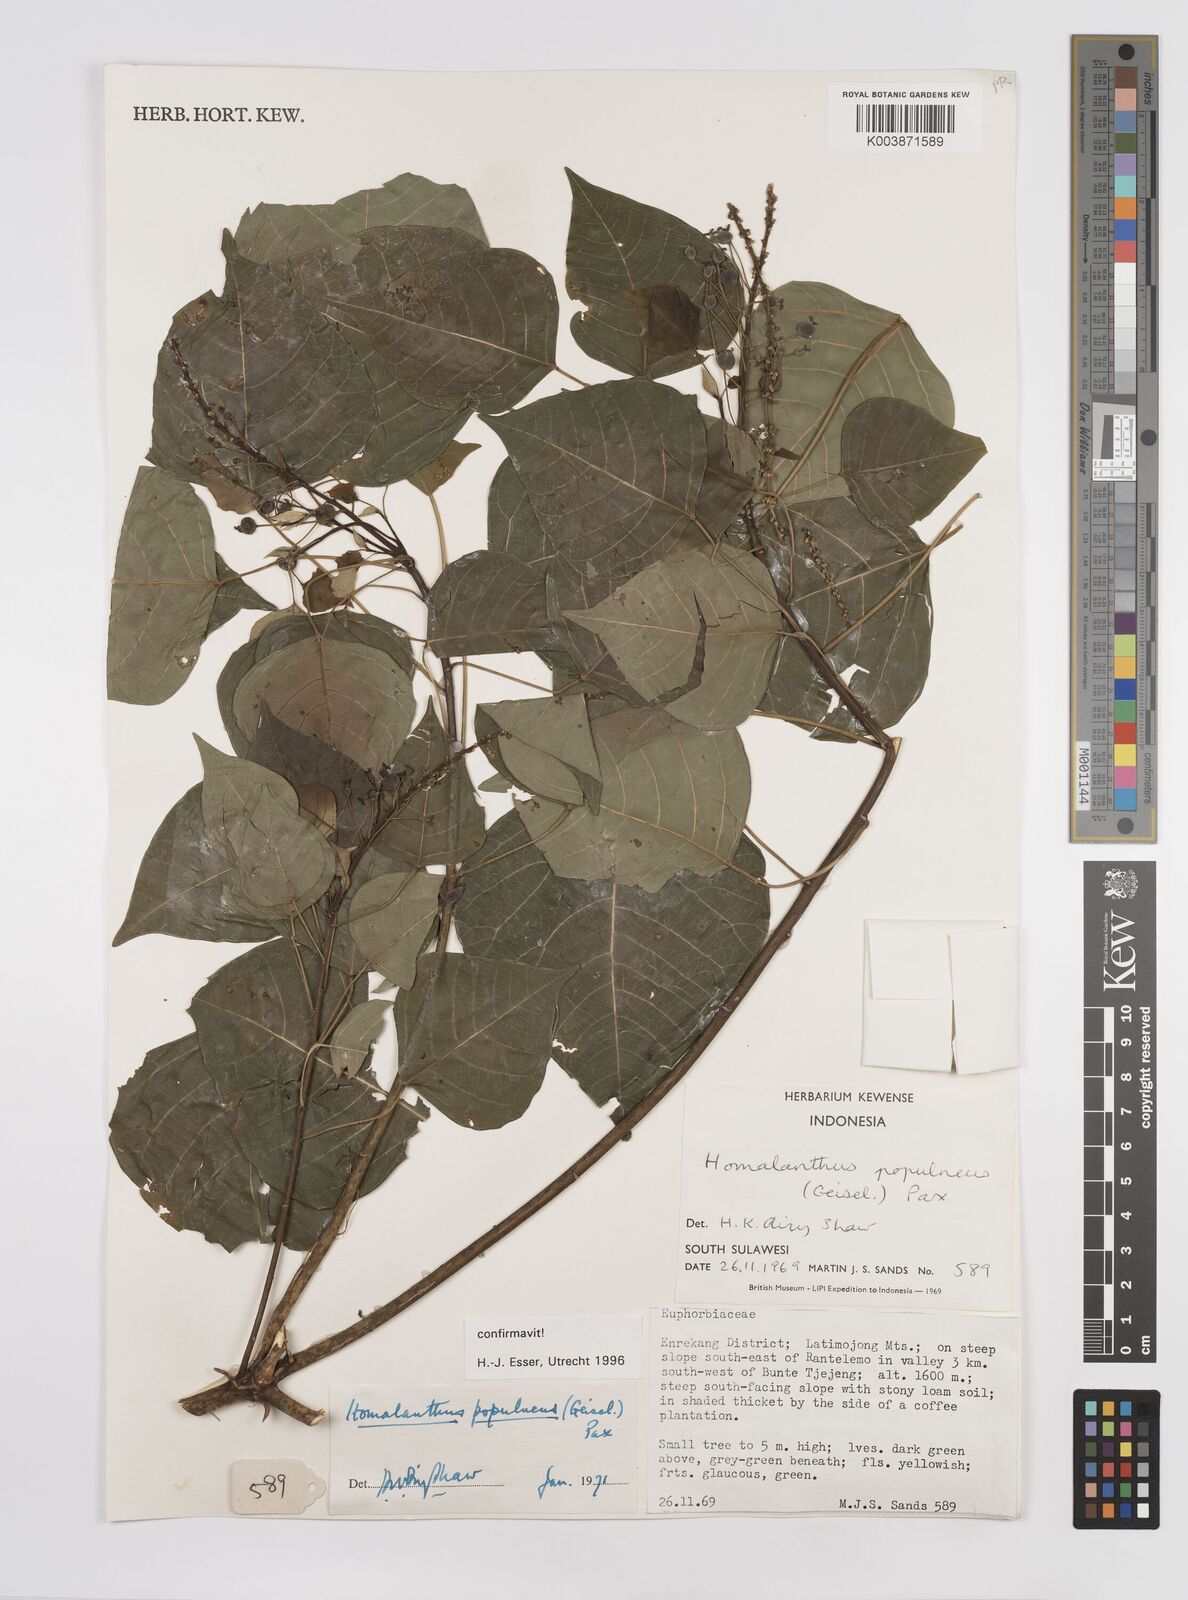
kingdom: Plantae
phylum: Tracheophyta
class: Magnoliopsida
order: Malpighiales
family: Euphorbiaceae
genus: Homalanthus
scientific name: Homalanthus populneus
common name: Spurge
